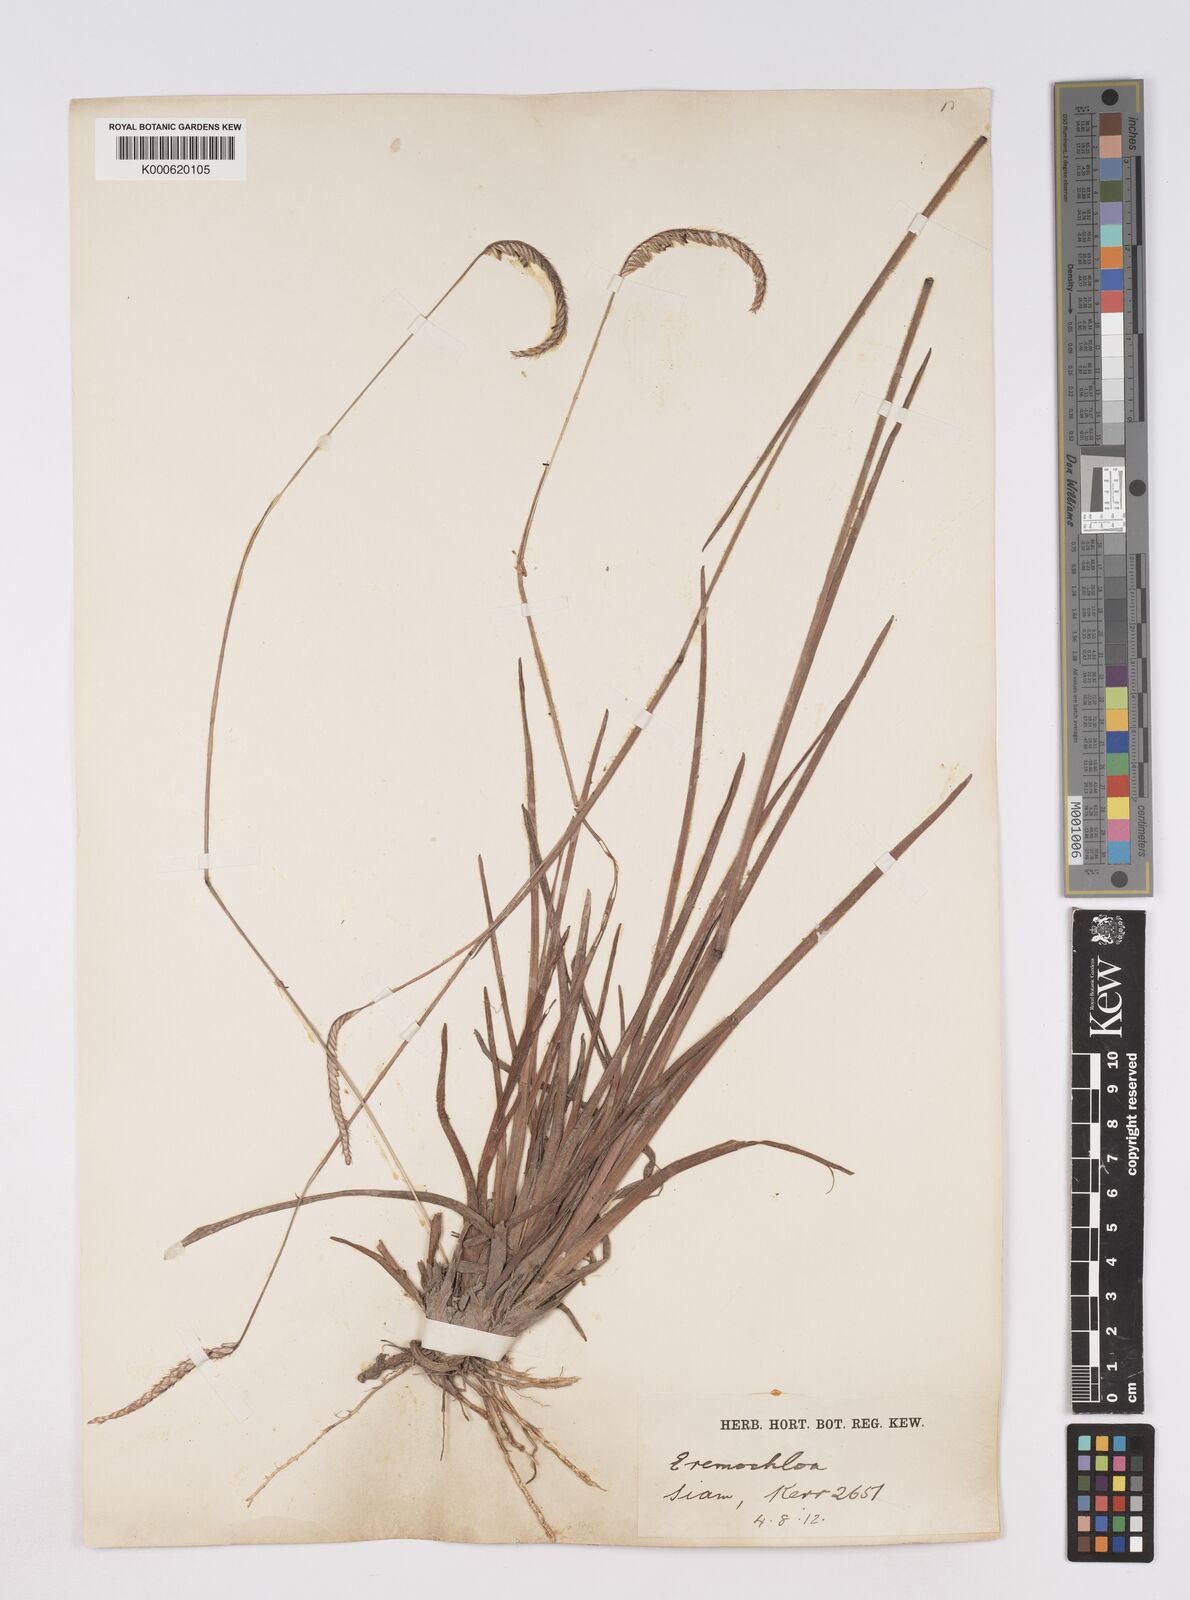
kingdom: Plantae
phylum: Tracheophyta
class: Liliopsida
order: Poales
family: Poaceae
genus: Eremochloa
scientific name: Eremochloa ciliaris
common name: Fringed centipede grass
